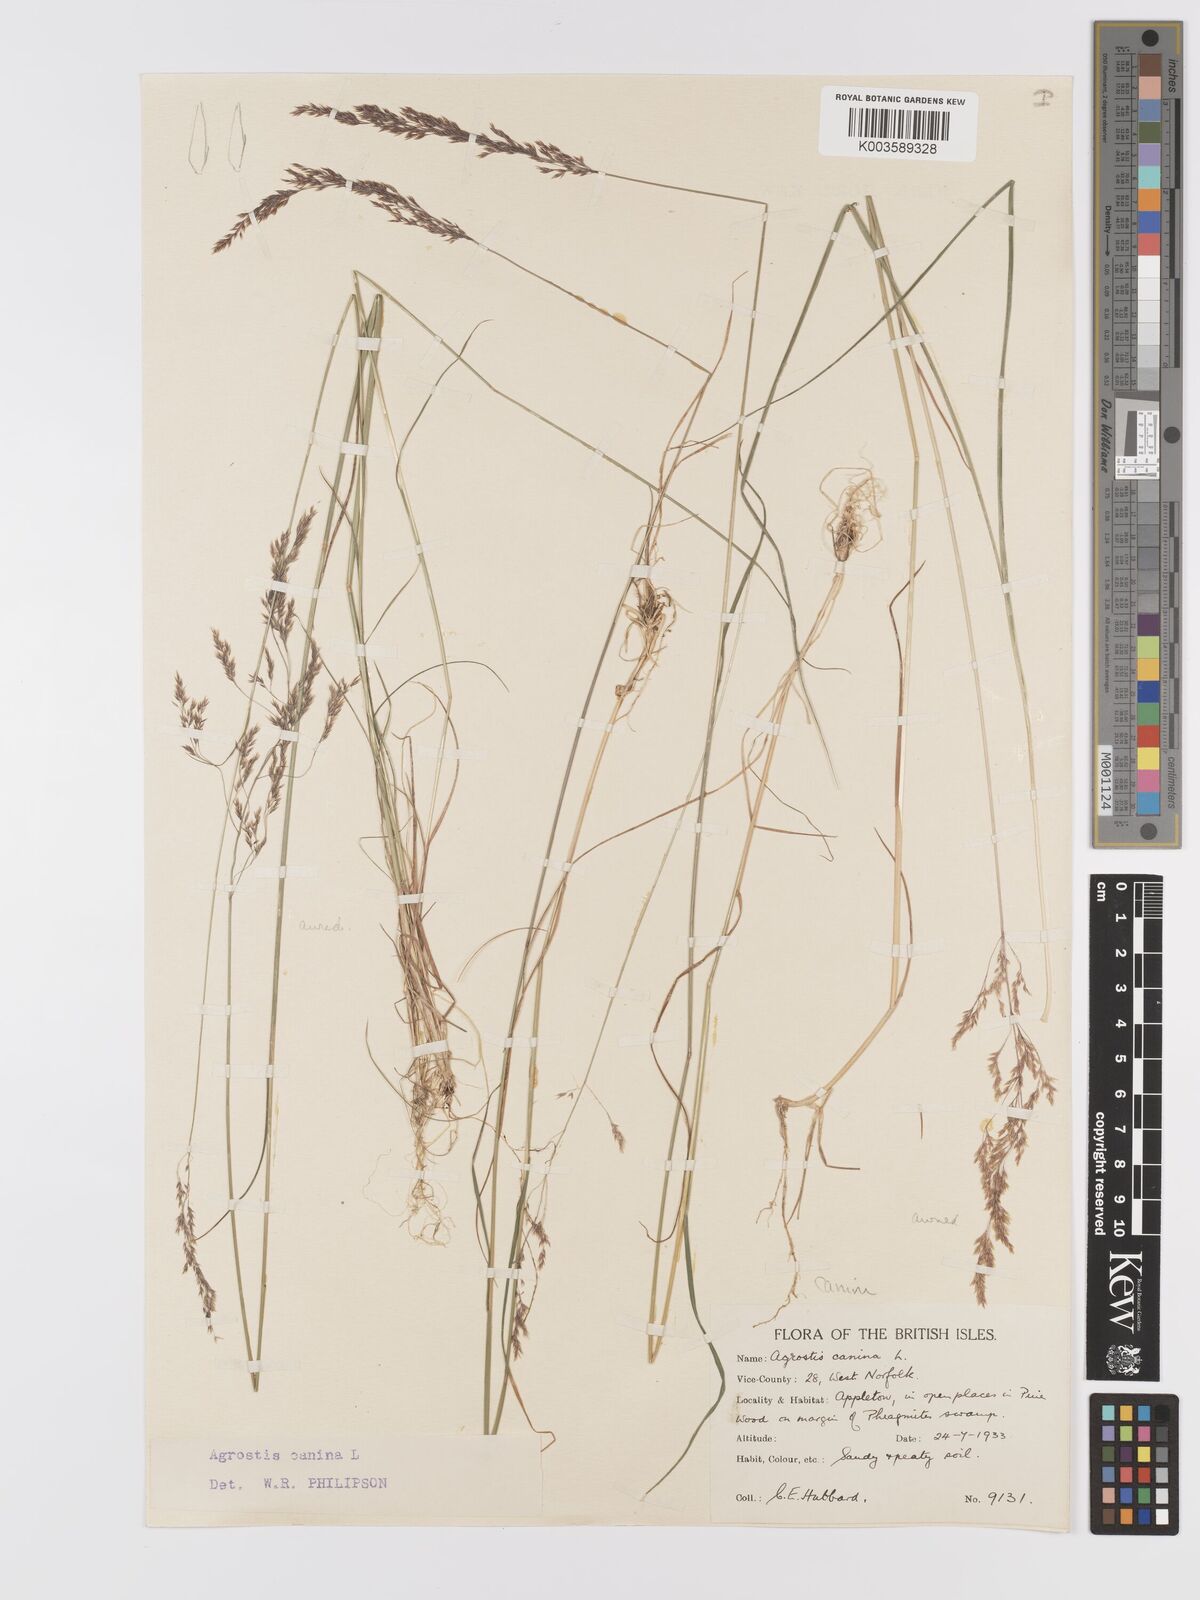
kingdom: Plantae
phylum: Tracheophyta
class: Liliopsida
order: Poales
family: Poaceae
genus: Agrostis
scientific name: Agrostis canina
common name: Velvet bent
